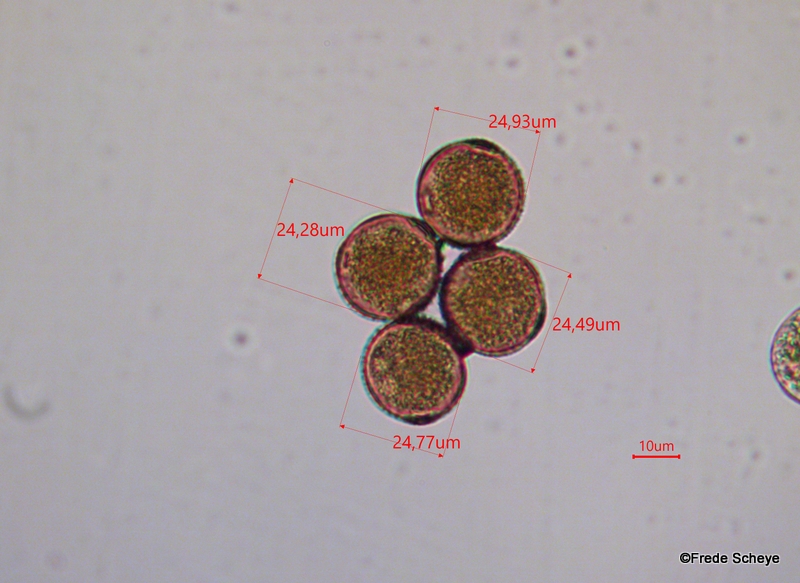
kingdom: Fungi
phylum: Basidiomycota
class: Pucciniomycetes
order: Pucciniales
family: Pucciniaceae
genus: Puccinia
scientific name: Puccinia suaveolens
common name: tidsel-tvecellerust
